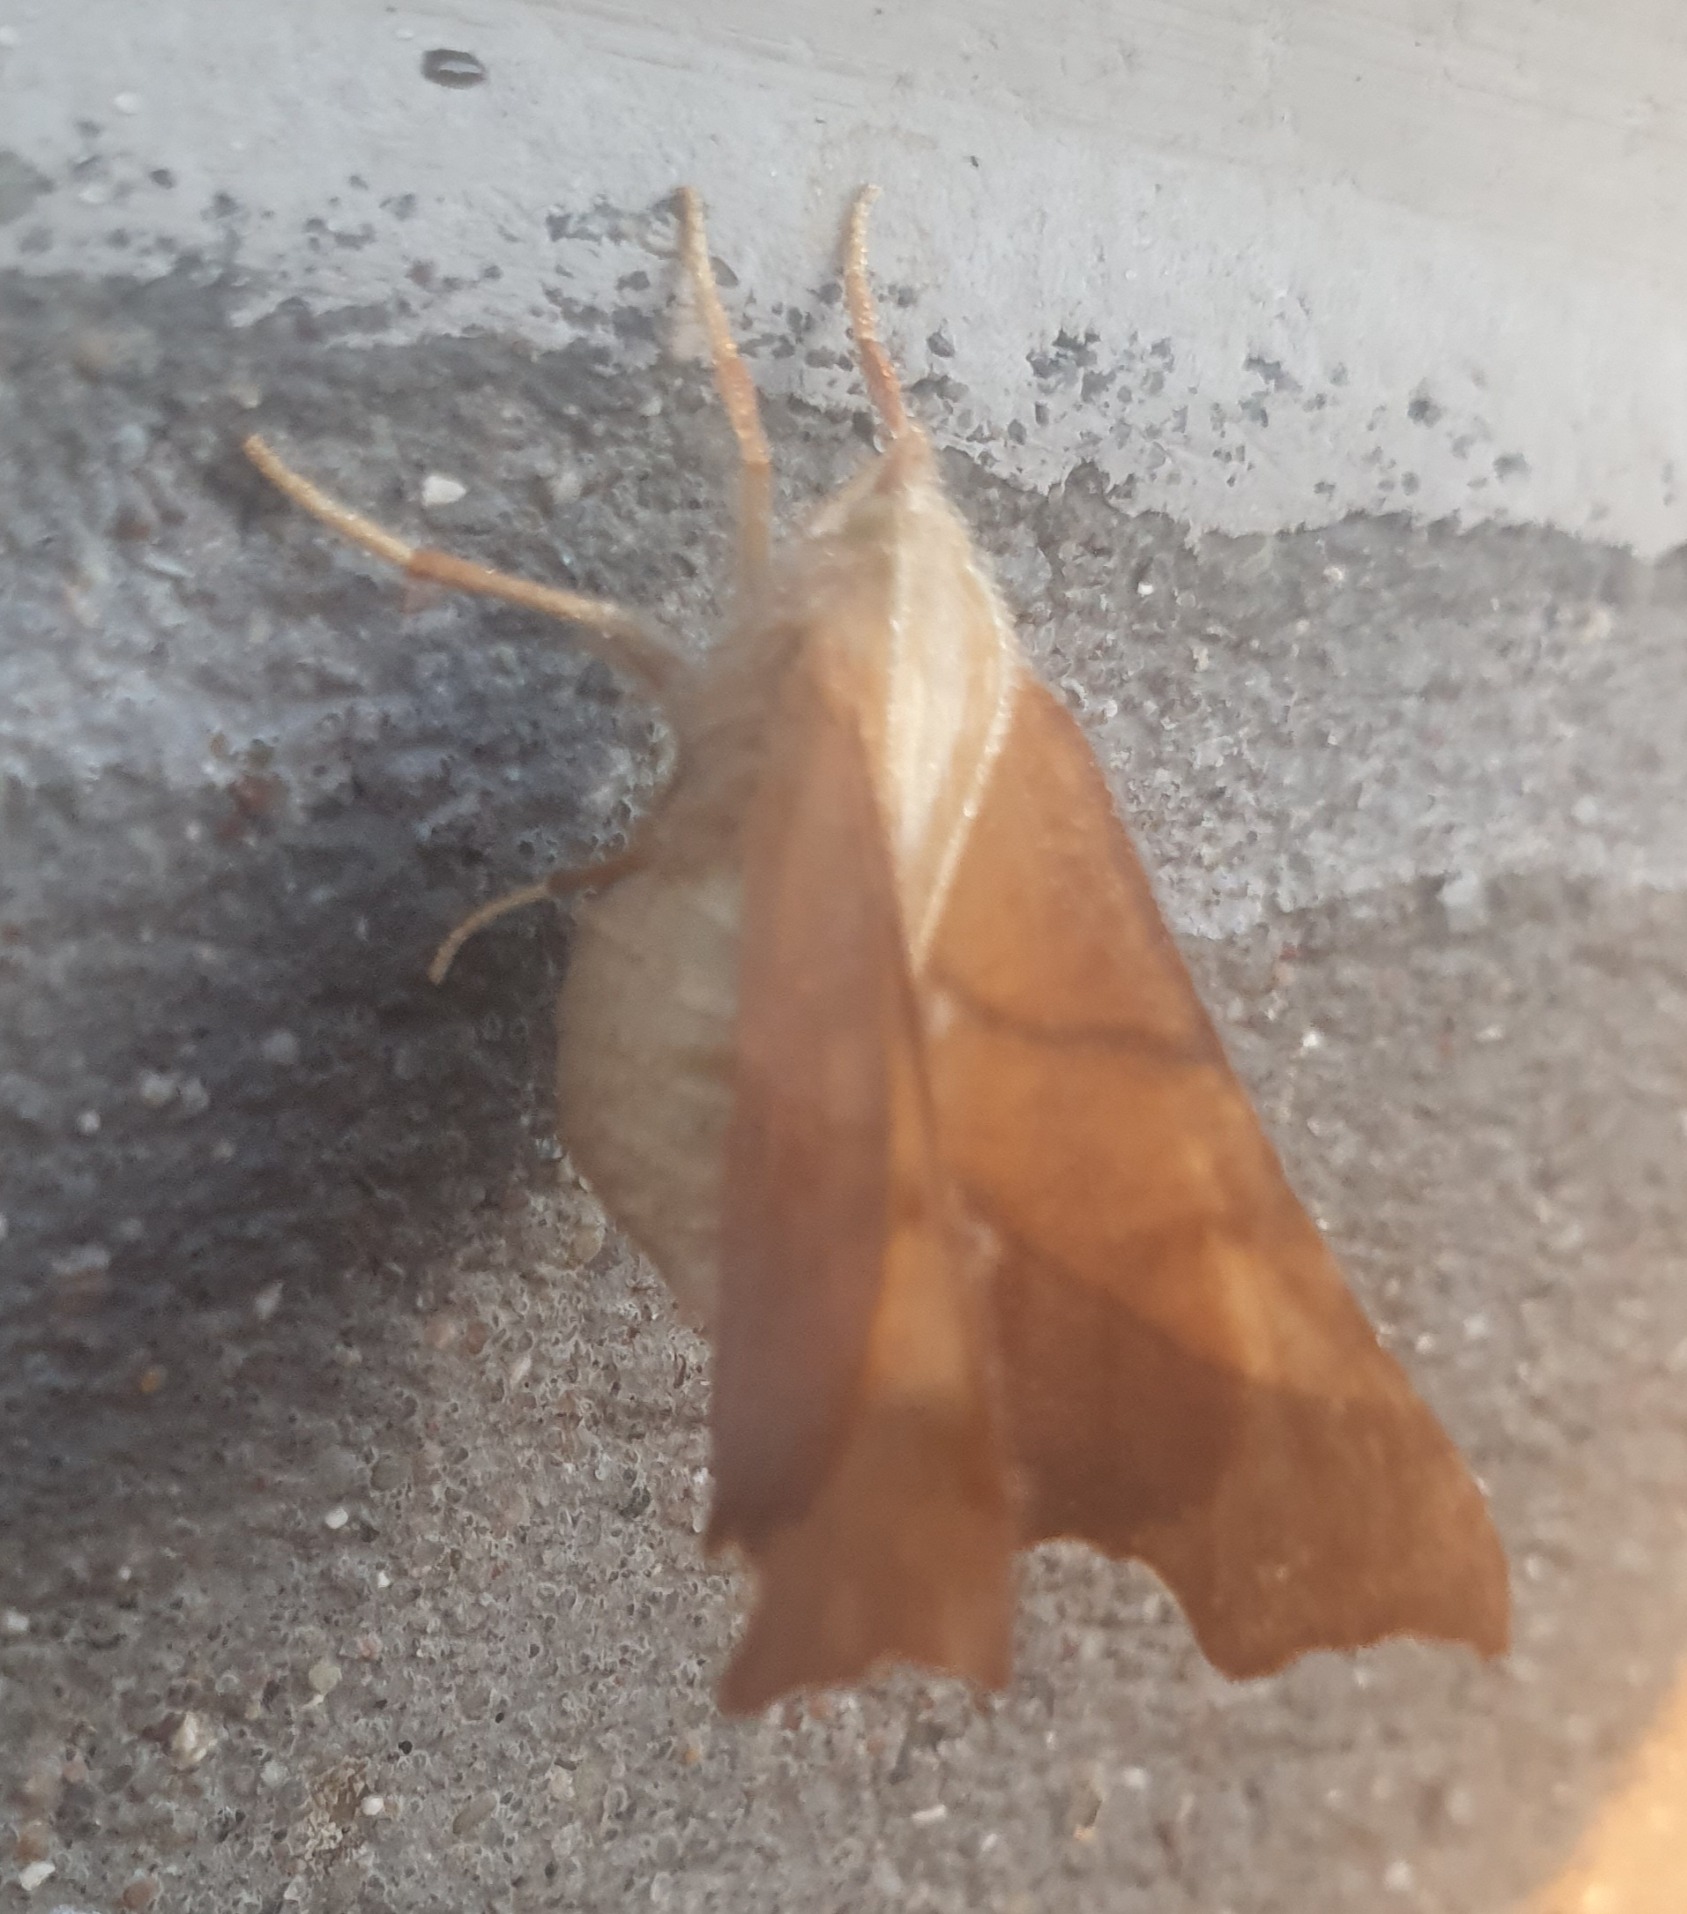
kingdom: Animalia
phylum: Arthropoda
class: Insecta
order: Lepidoptera
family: Geometridae
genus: Ennomos
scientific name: Ennomos fuscantaria
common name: Asketandmåler
